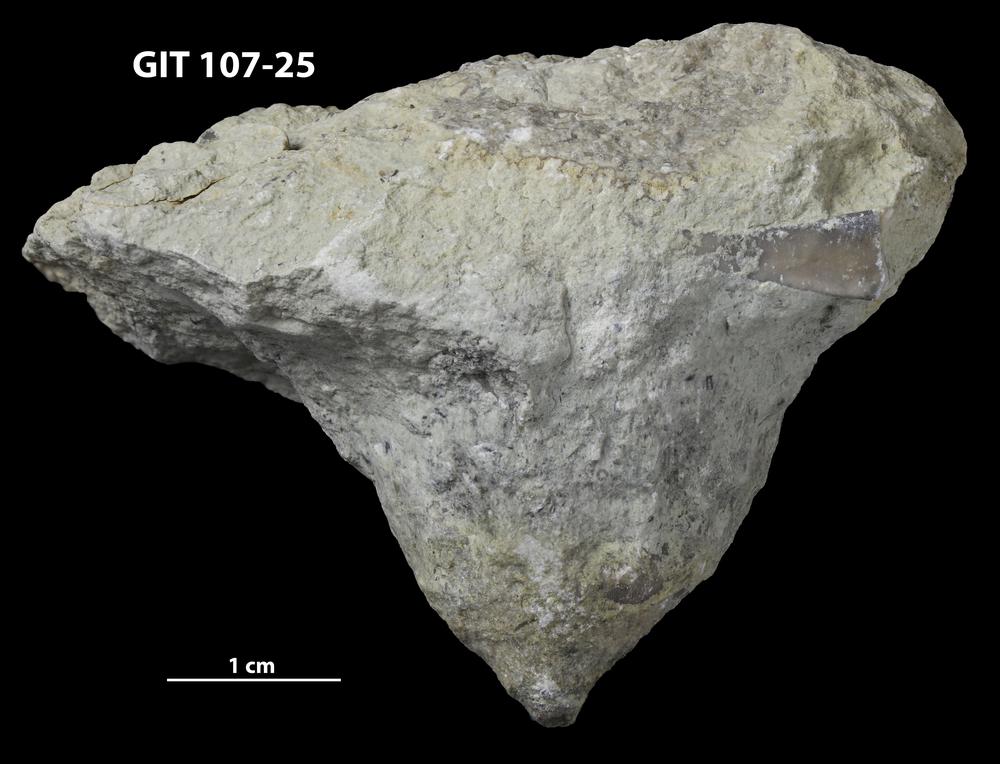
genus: Amphorichnus
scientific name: Amphorichnus
